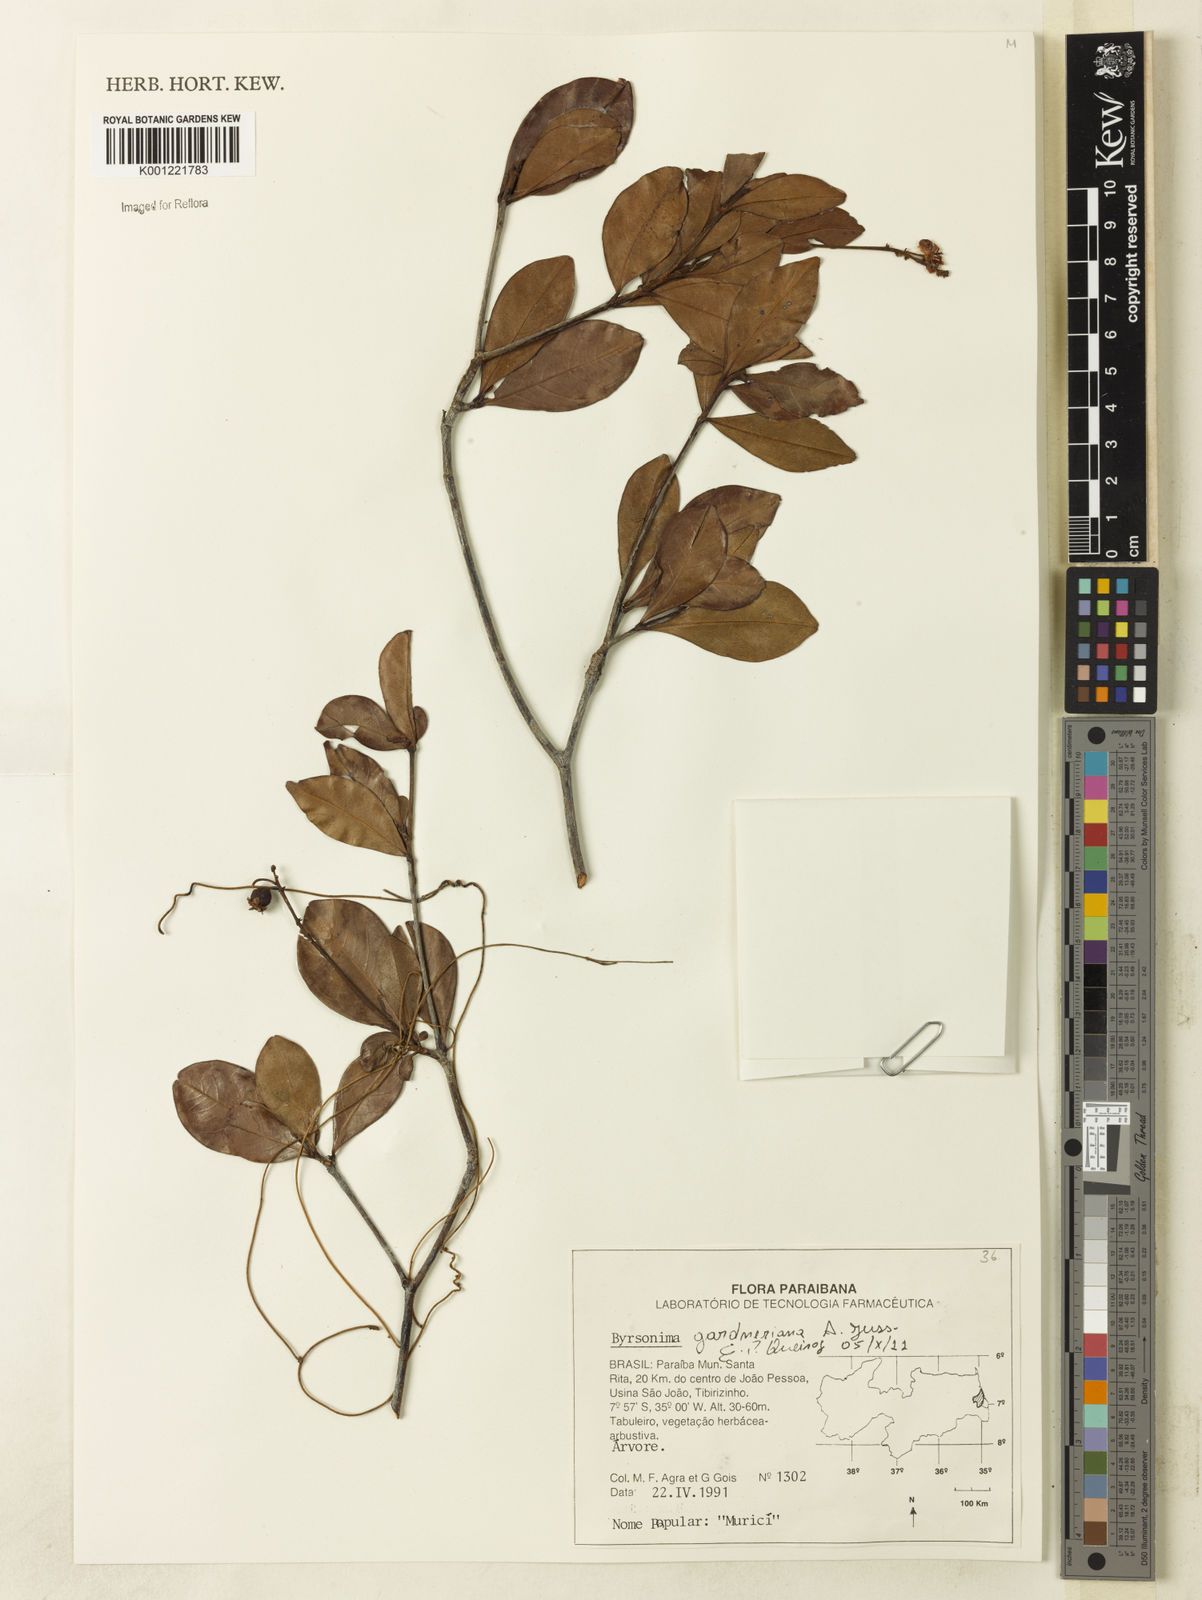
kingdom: Plantae
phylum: Tracheophyta
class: Magnoliopsida
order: Malpighiales
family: Malpighiaceae
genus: Byrsonima
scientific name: Byrsonima gardneriana
